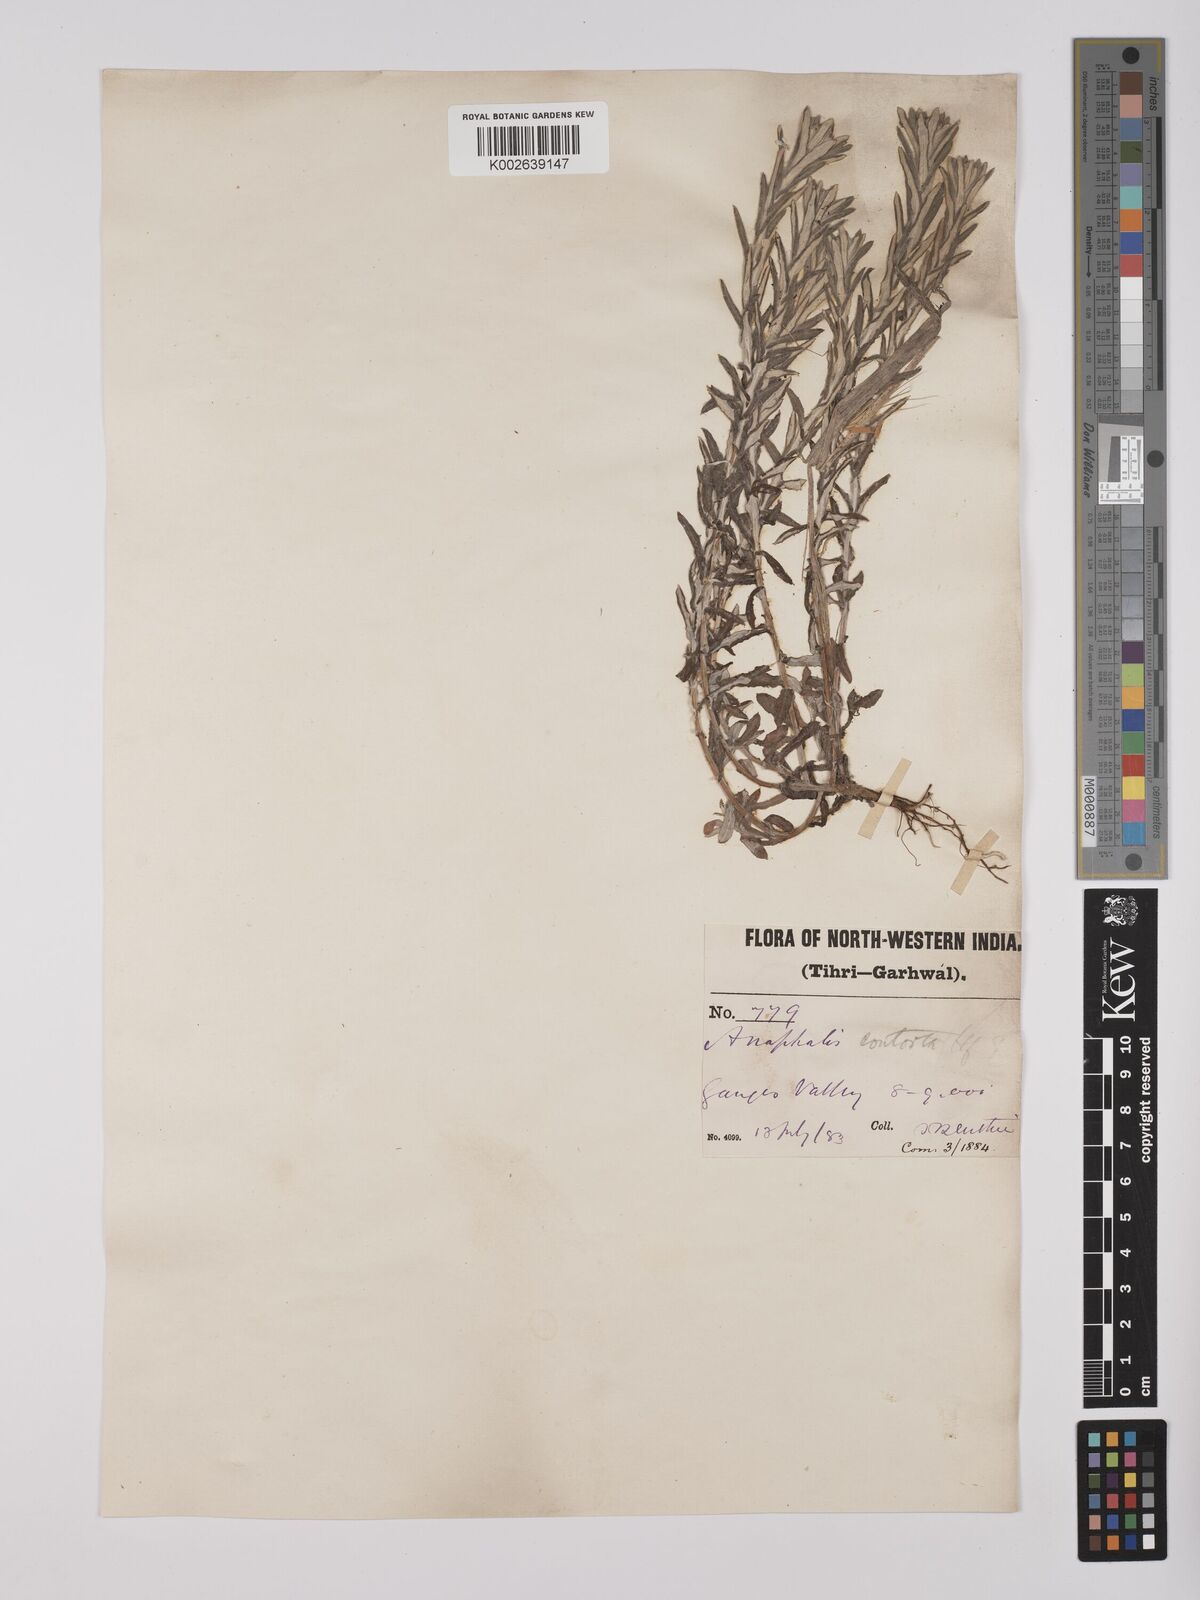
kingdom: Plantae
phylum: Tracheophyta
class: Magnoliopsida
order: Asterales
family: Asteraceae
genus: Anaphalis
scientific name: Anaphalis contorta
